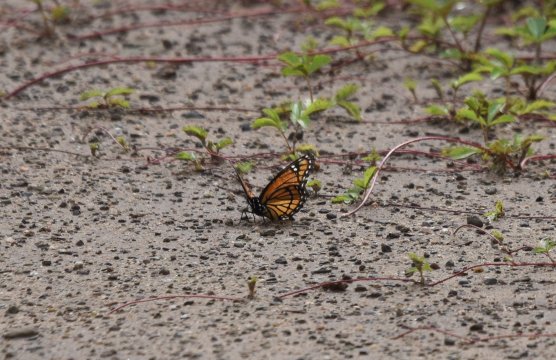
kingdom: Animalia
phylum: Arthropoda
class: Insecta
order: Lepidoptera
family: Nymphalidae
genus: Limenitis
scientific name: Limenitis archippus
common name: Viceroy
